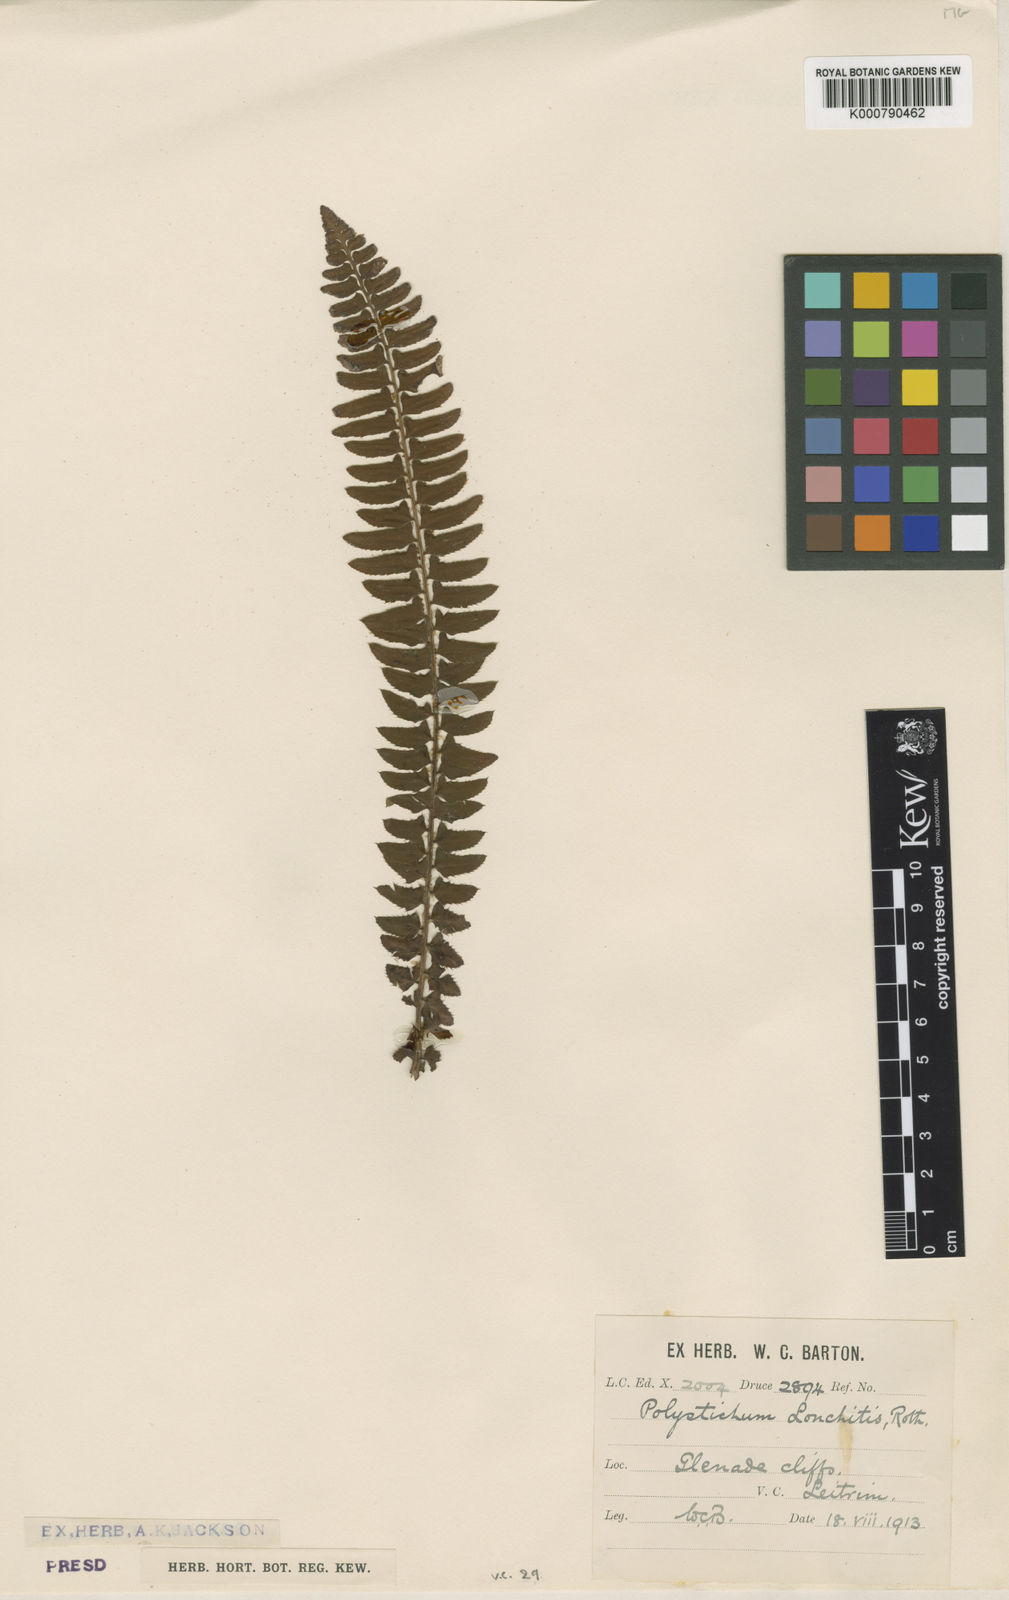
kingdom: Plantae
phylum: Tracheophyta
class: Polypodiopsida
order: Polypodiales
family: Dryopteridaceae
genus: Polystichum
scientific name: Polystichum
